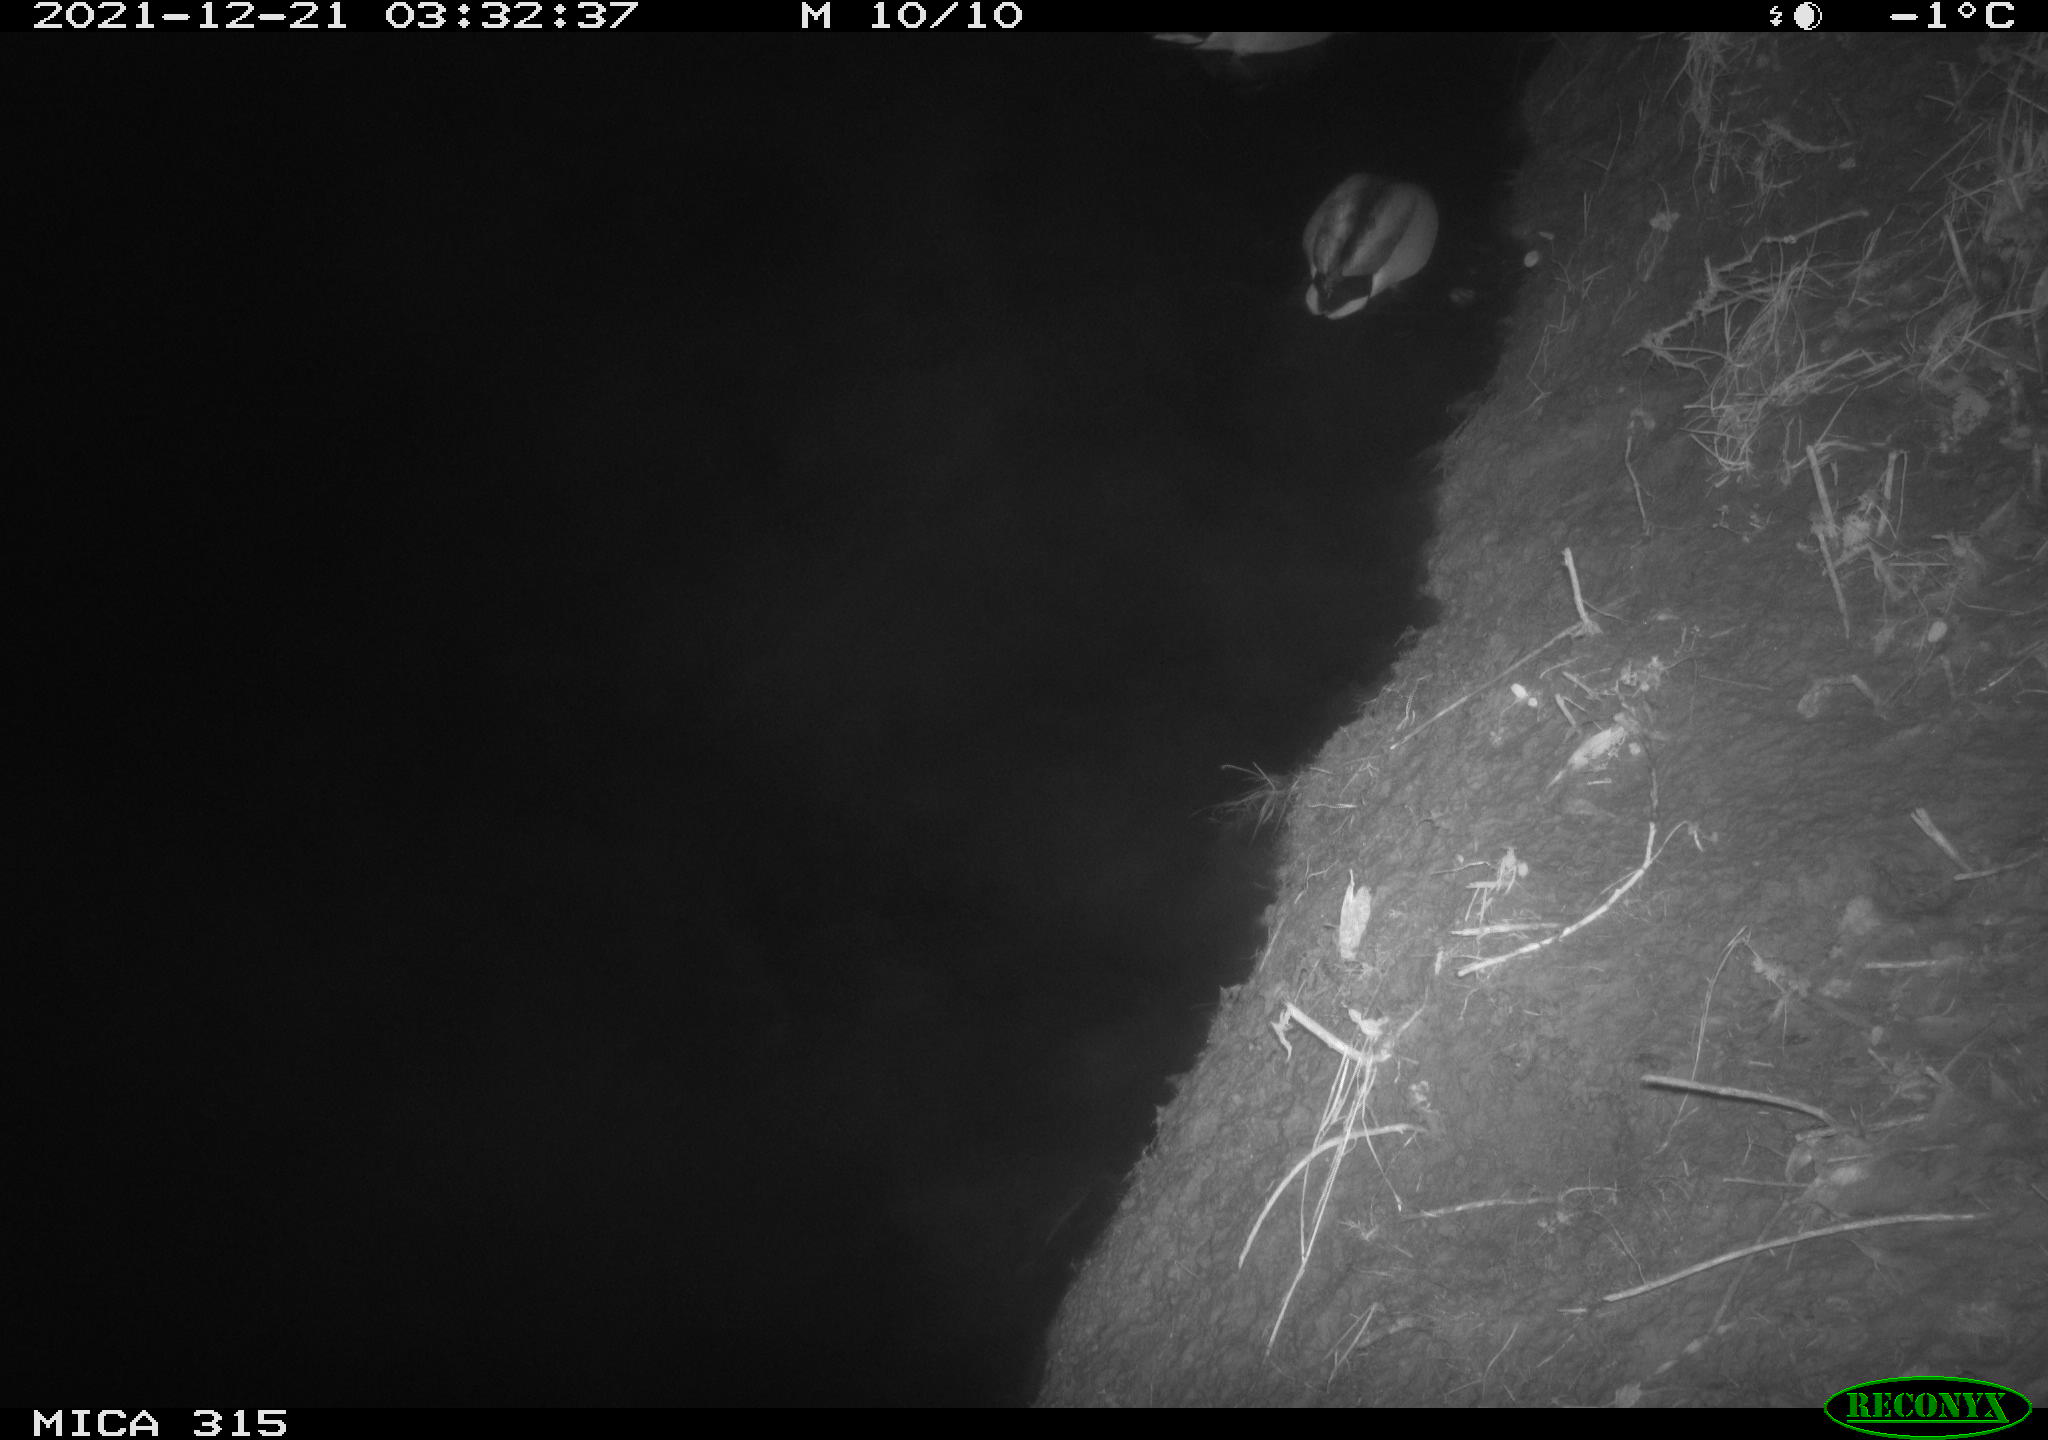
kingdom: Animalia
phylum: Chordata
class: Aves
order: Anseriformes
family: Anatidae
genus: Anas
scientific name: Anas
